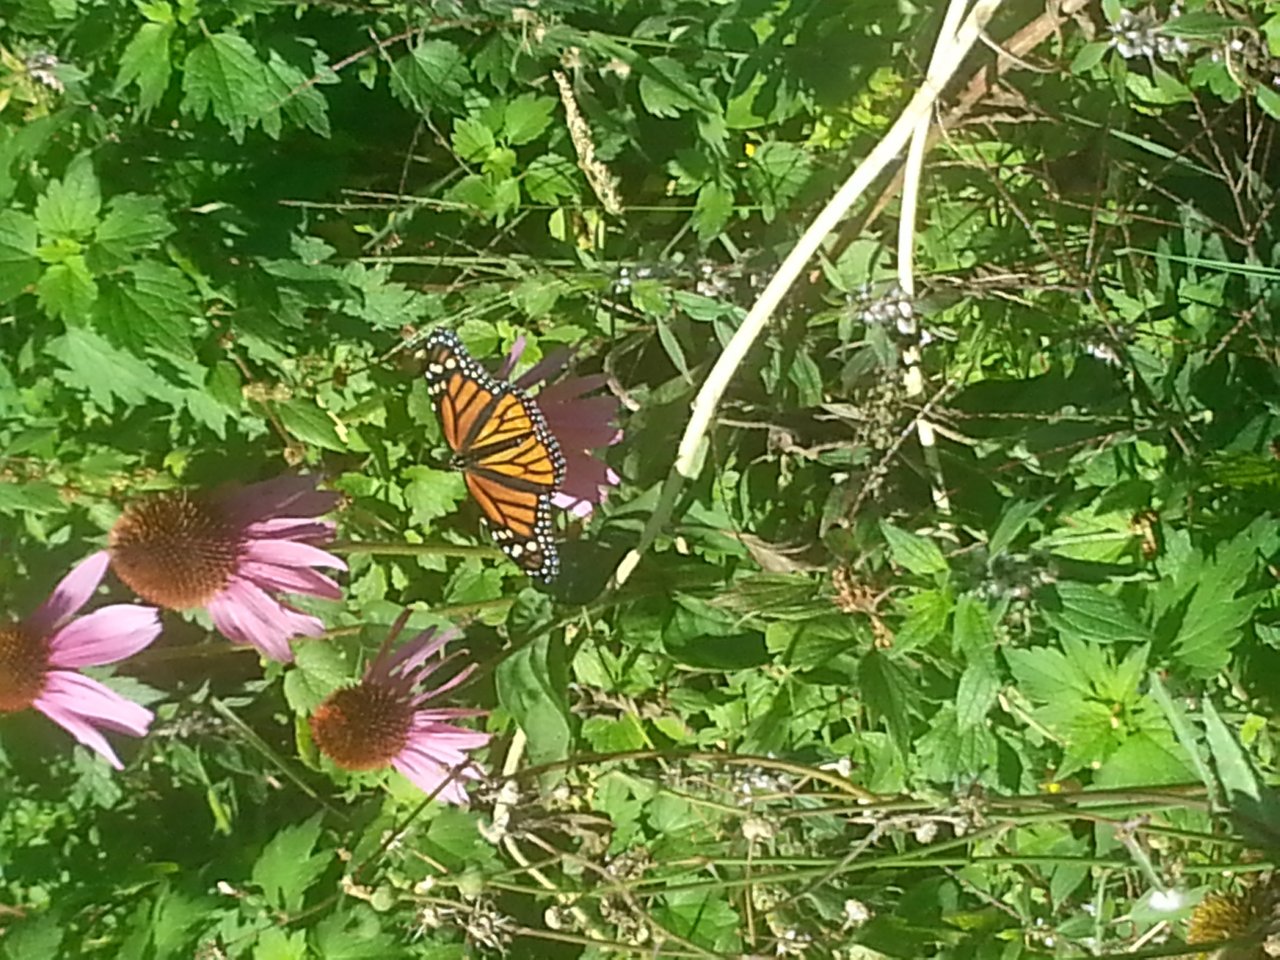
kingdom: Animalia
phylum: Arthropoda
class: Insecta
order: Lepidoptera
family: Nymphalidae
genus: Danaus
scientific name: Danaus plexippus
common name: Monarch
